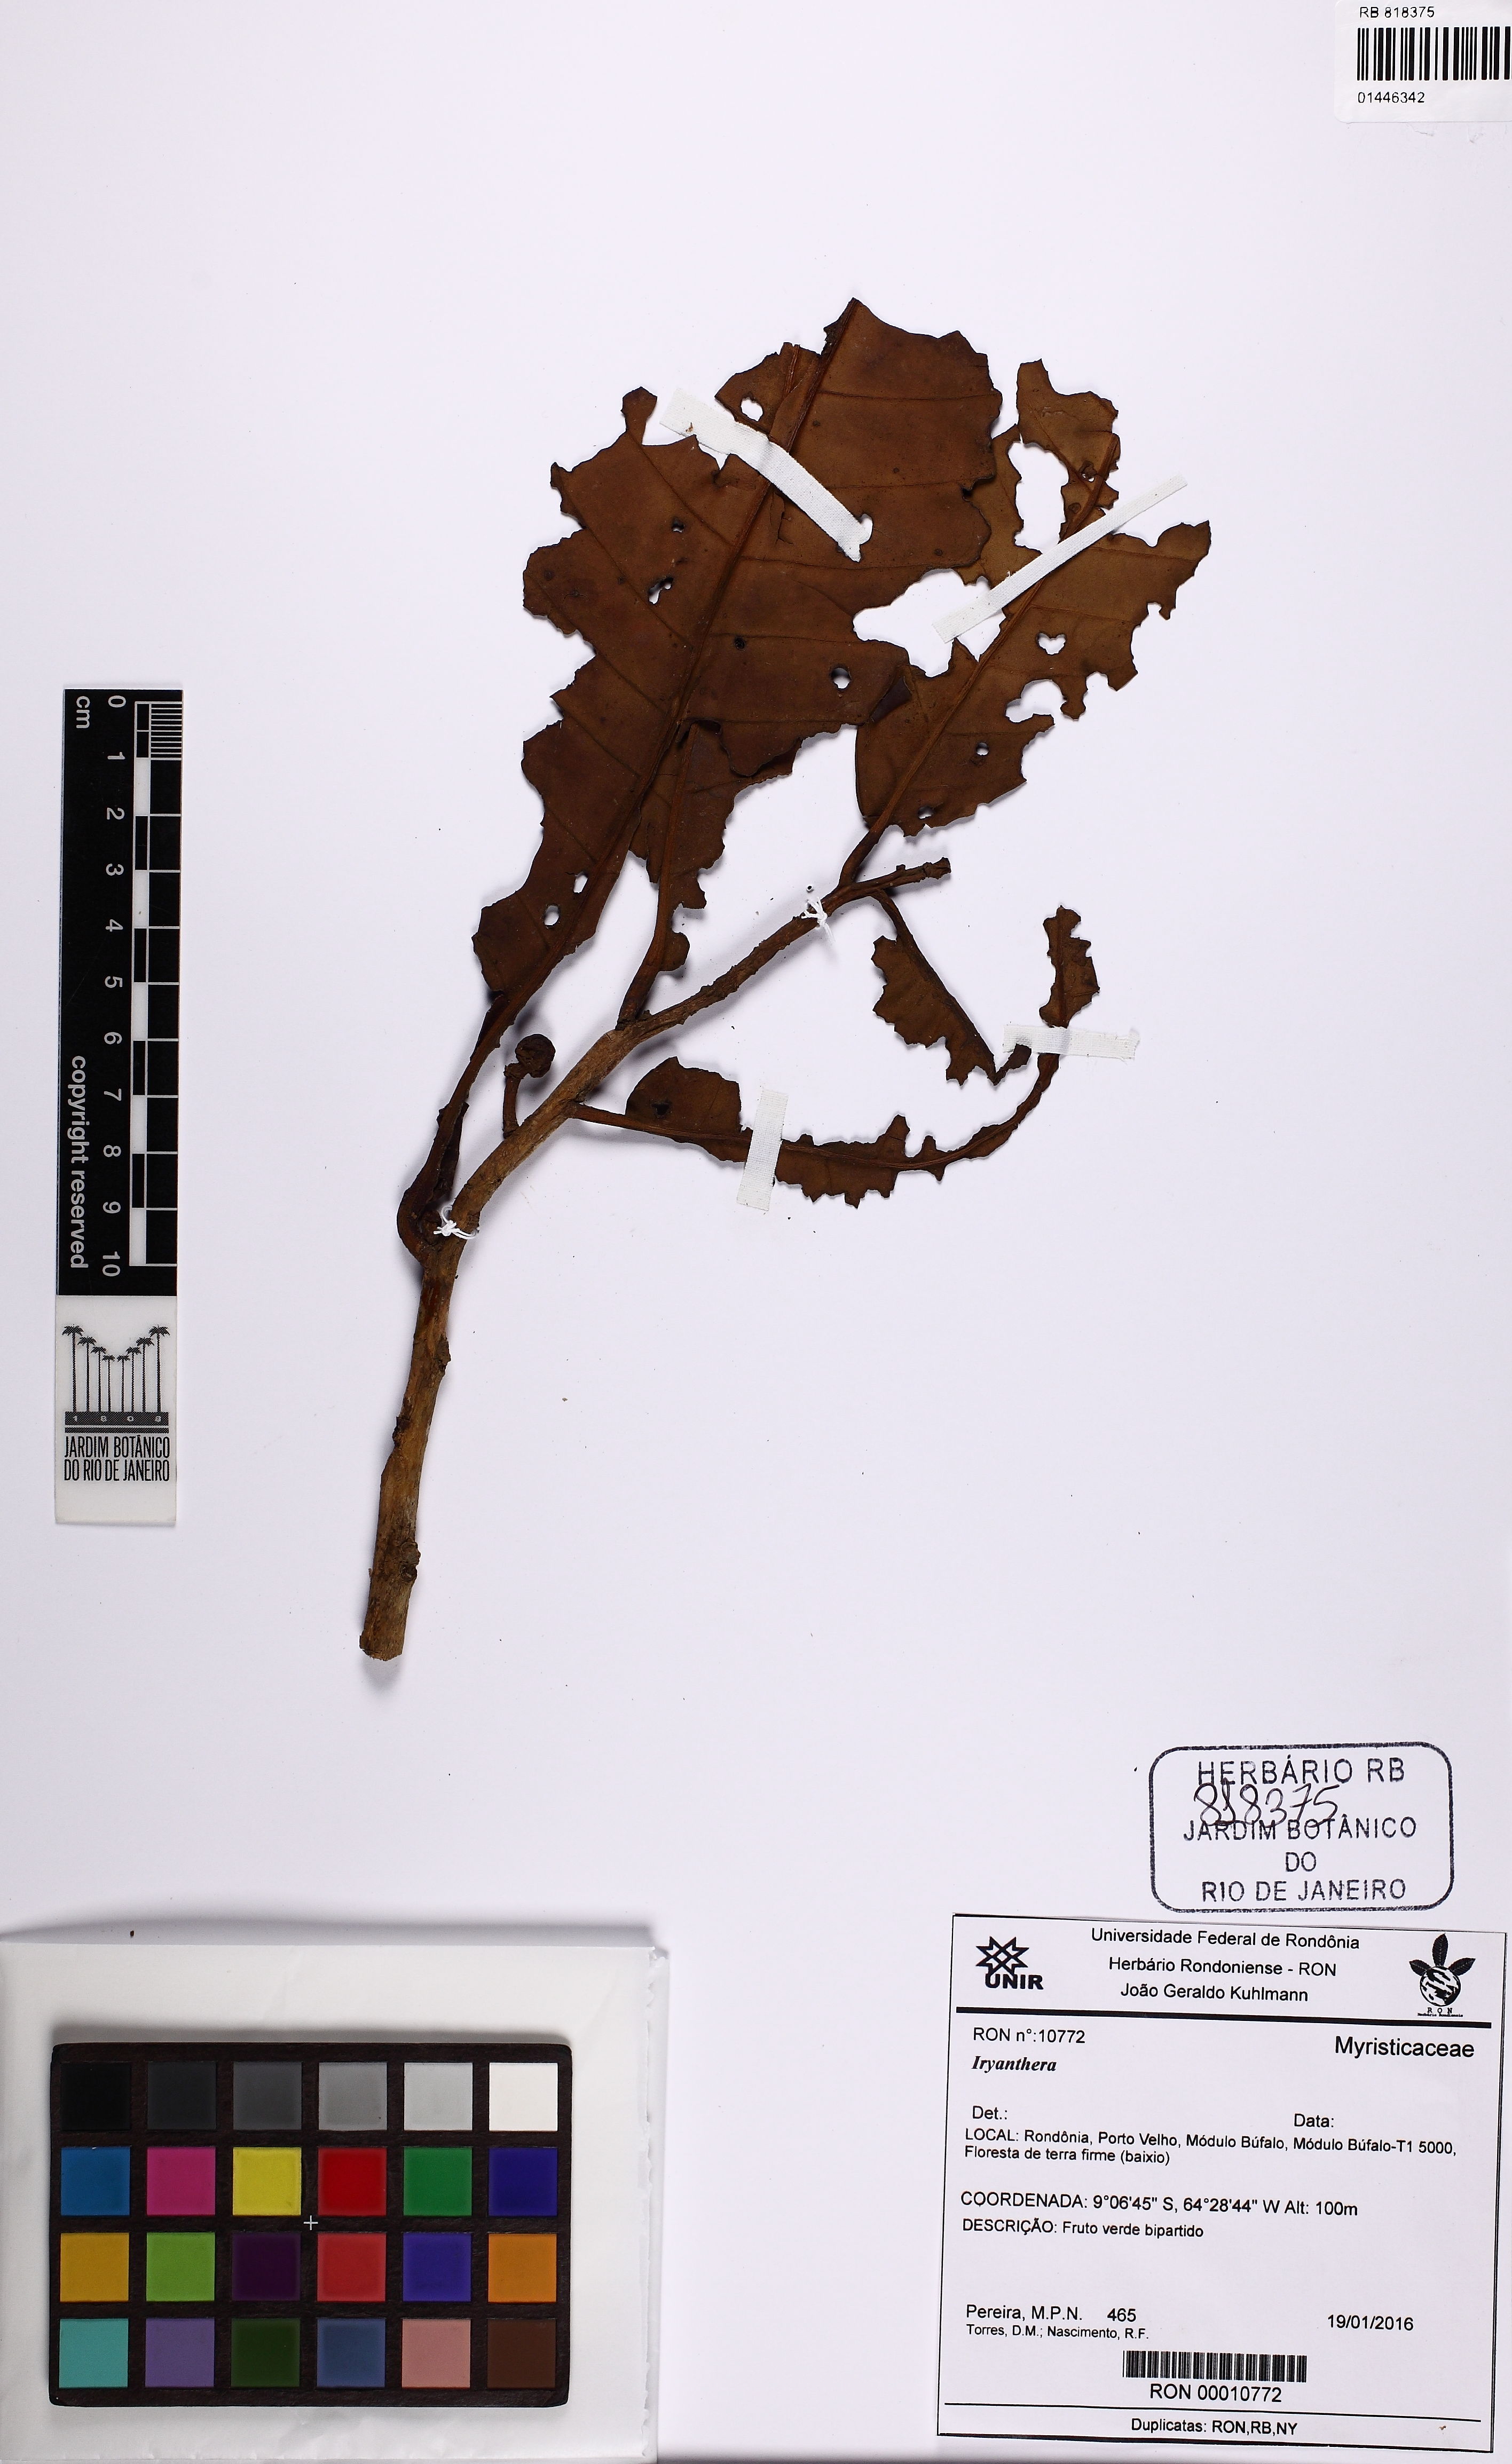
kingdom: Plantae
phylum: Tracheophyta
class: Magnoliopsida
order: Magnoliales
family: Myristicaceae
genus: Iryanthera
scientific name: Iryanthera
